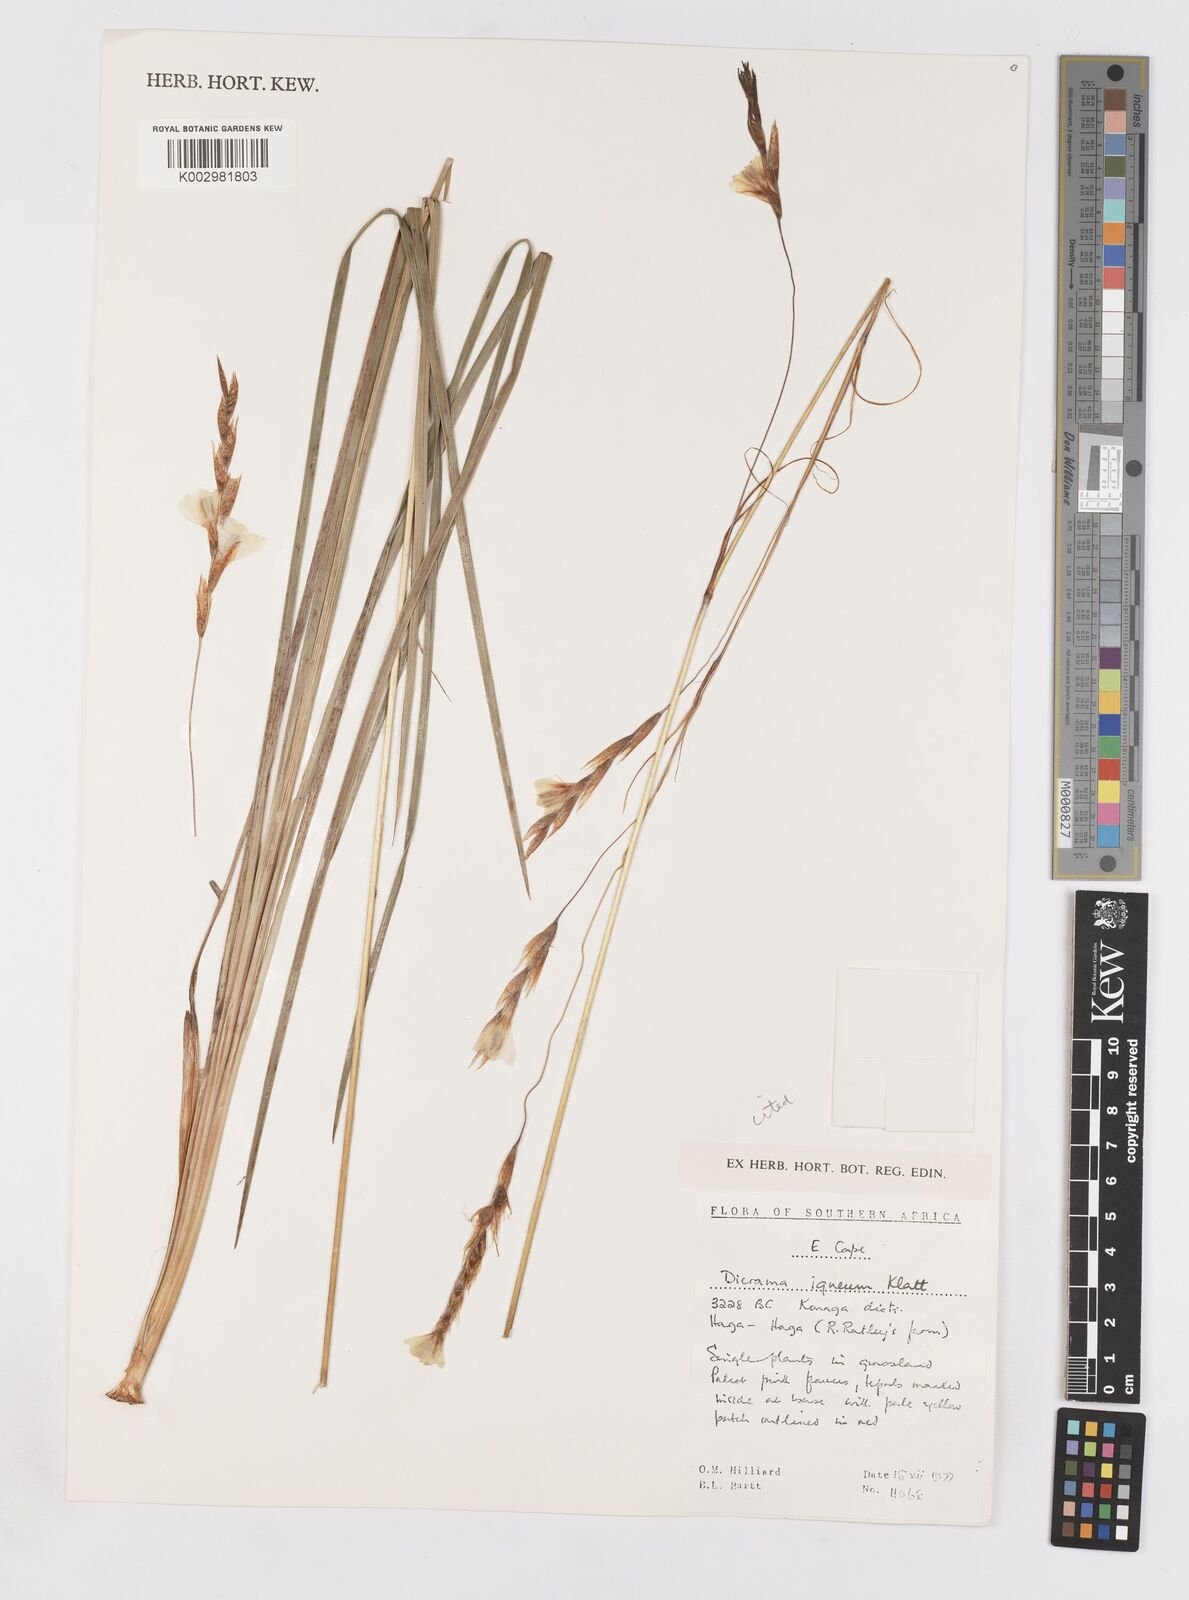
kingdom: Plantae
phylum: Tracheophyta
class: Liliopsida
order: Asparagales
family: Iridaceae
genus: Dierama
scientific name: Dierama igneum
